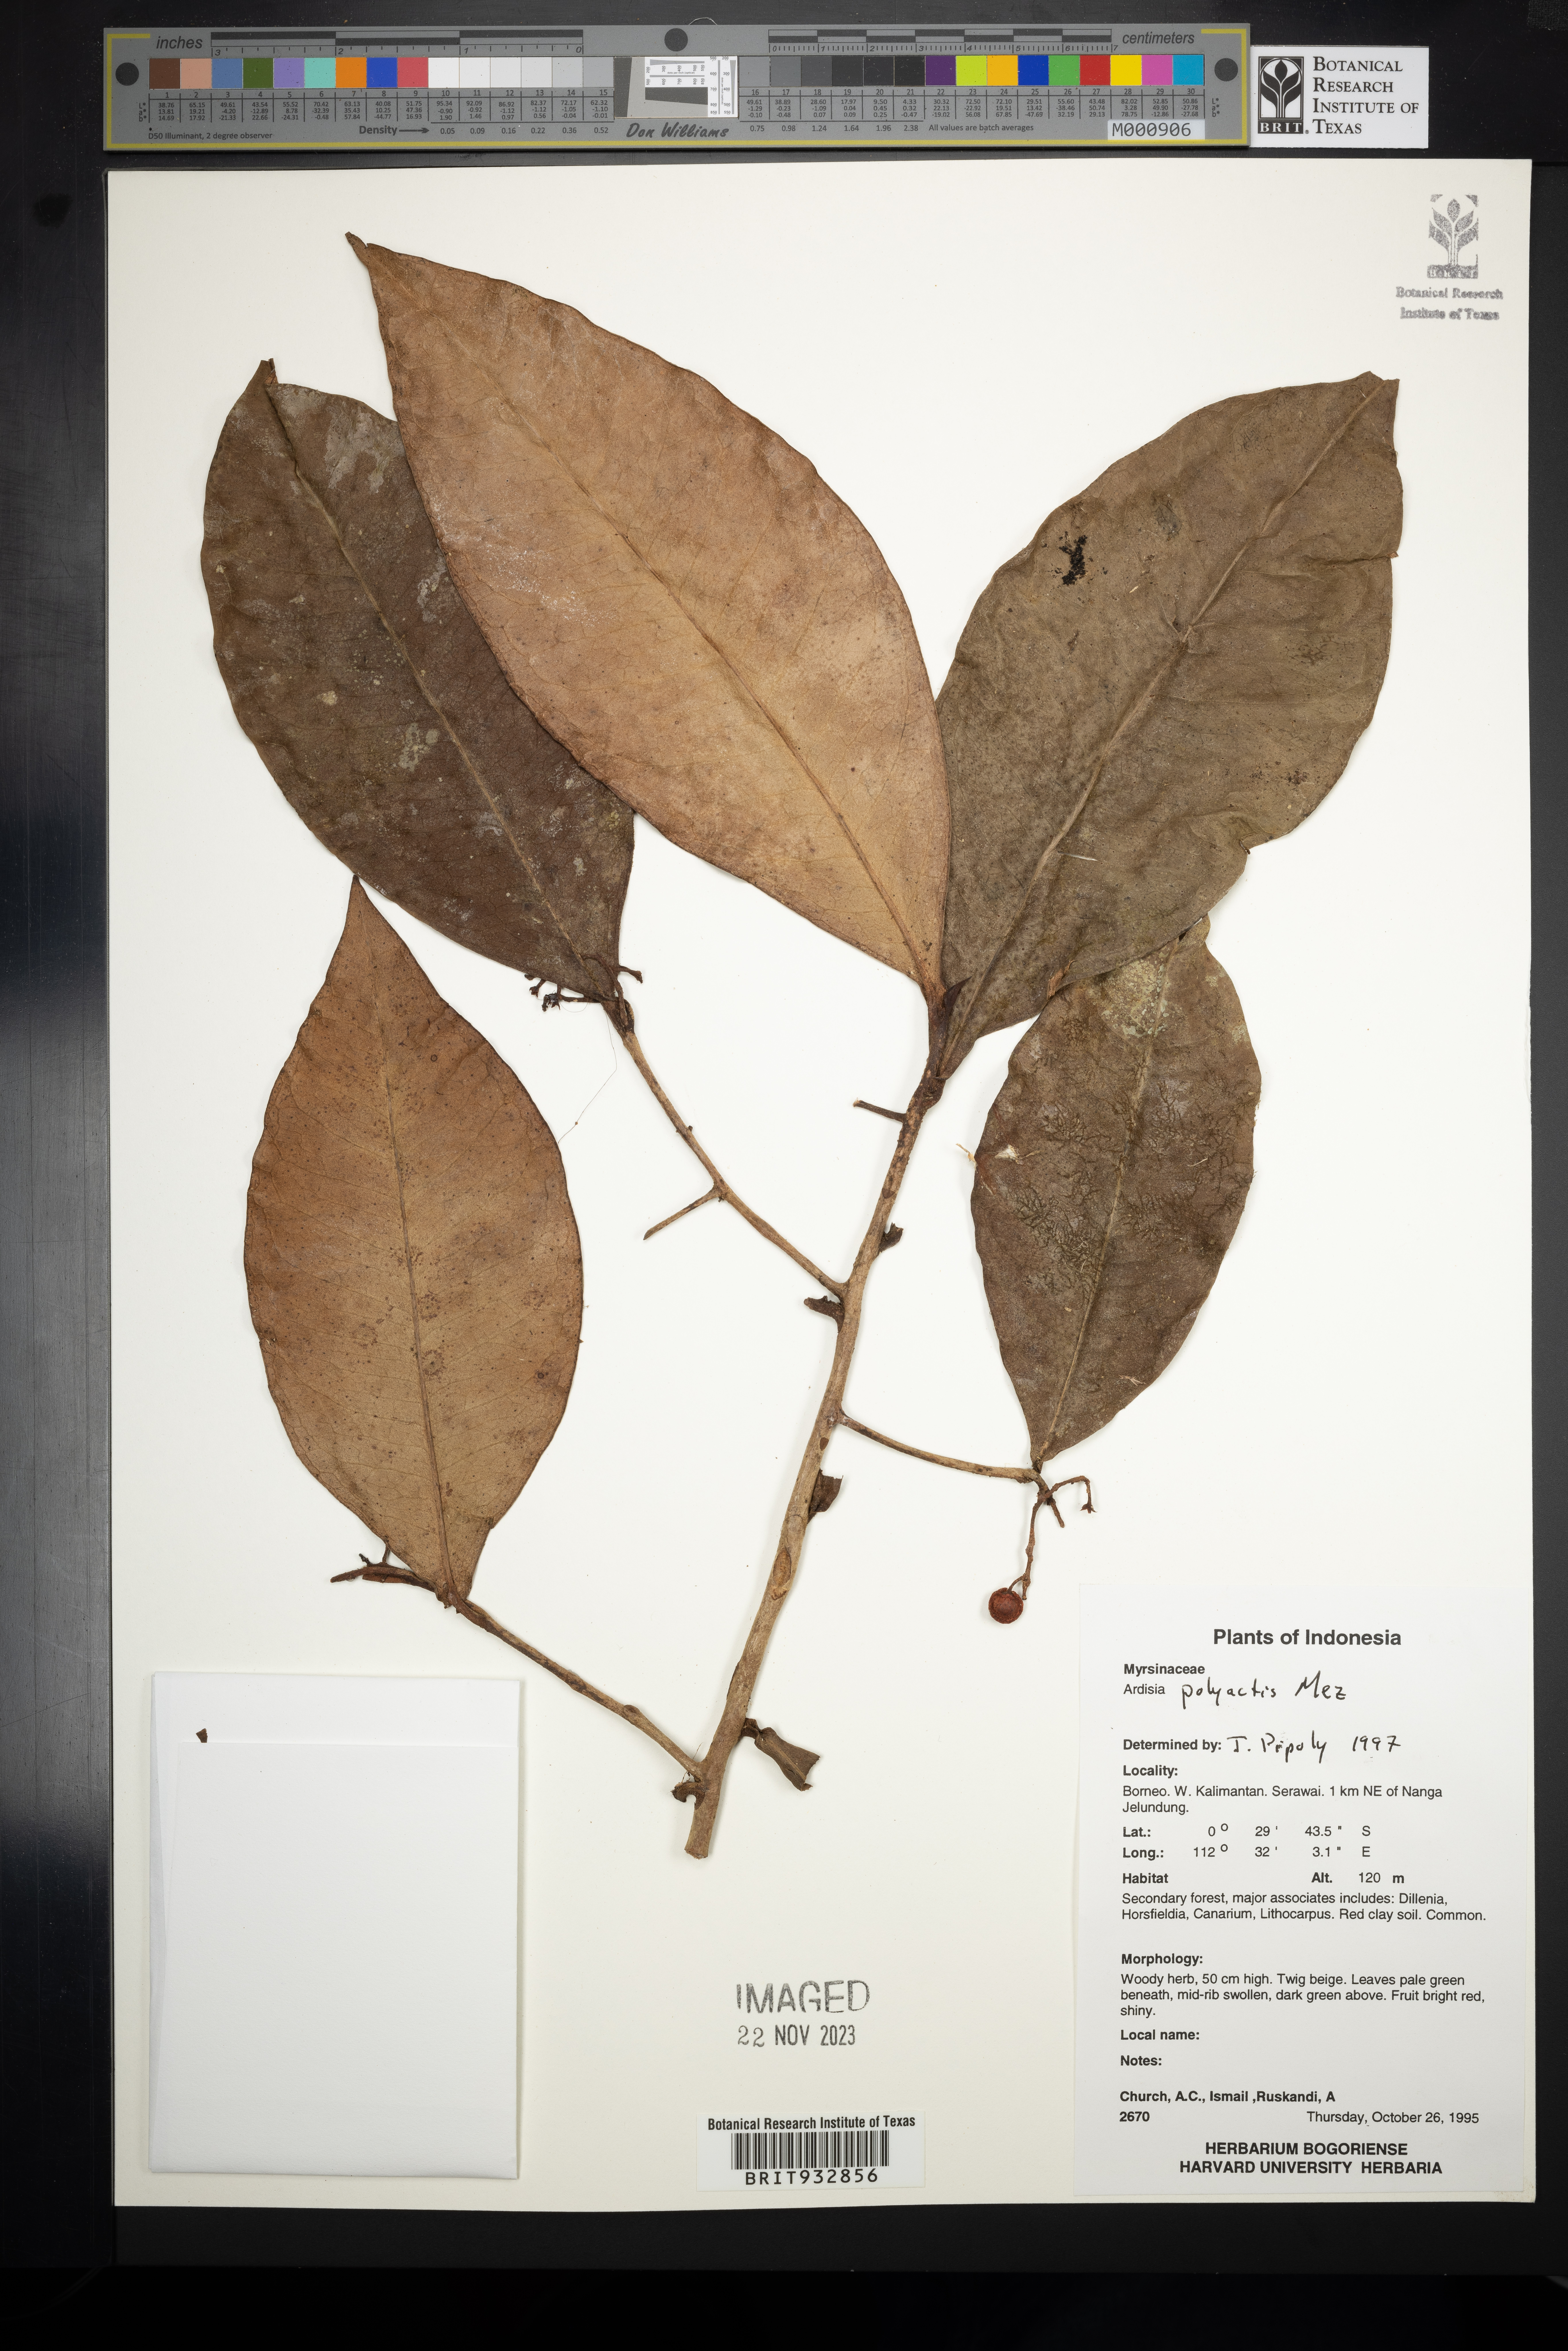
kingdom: Plantae
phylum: Tracheophyta
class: Magnoliopsida
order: Ericales
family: Primulaceae
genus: Ardisia
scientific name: Ardisia
